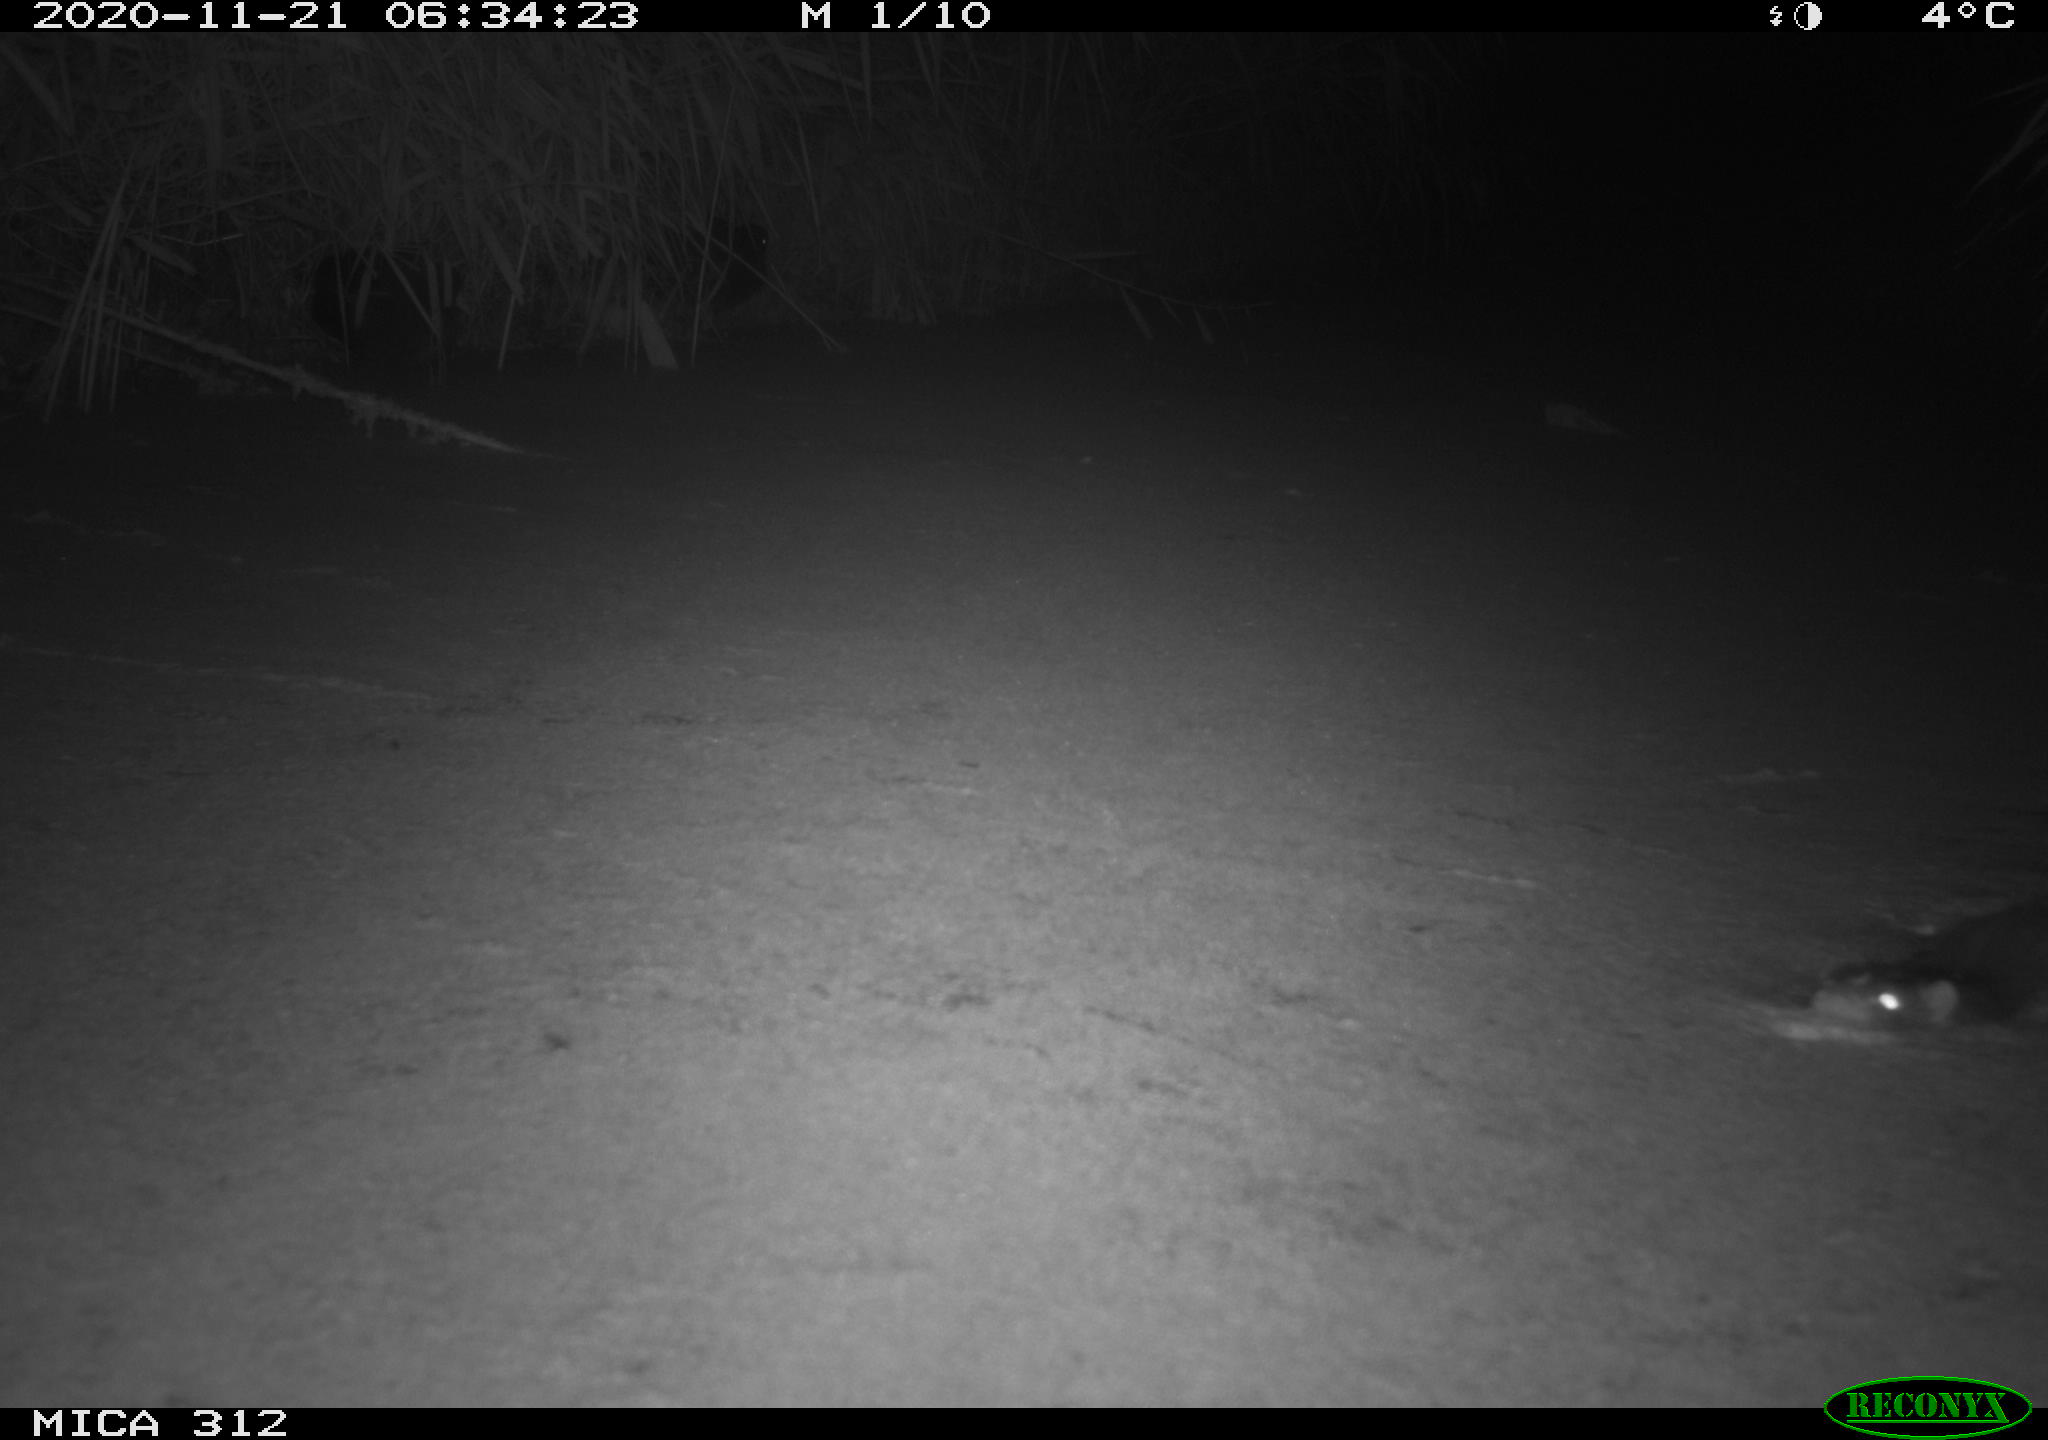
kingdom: Animalia
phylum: Chordata
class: Aves
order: Gruiformes
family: Rallidae
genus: Gallinula
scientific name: Gallinula chloropus
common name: Common moorhen
